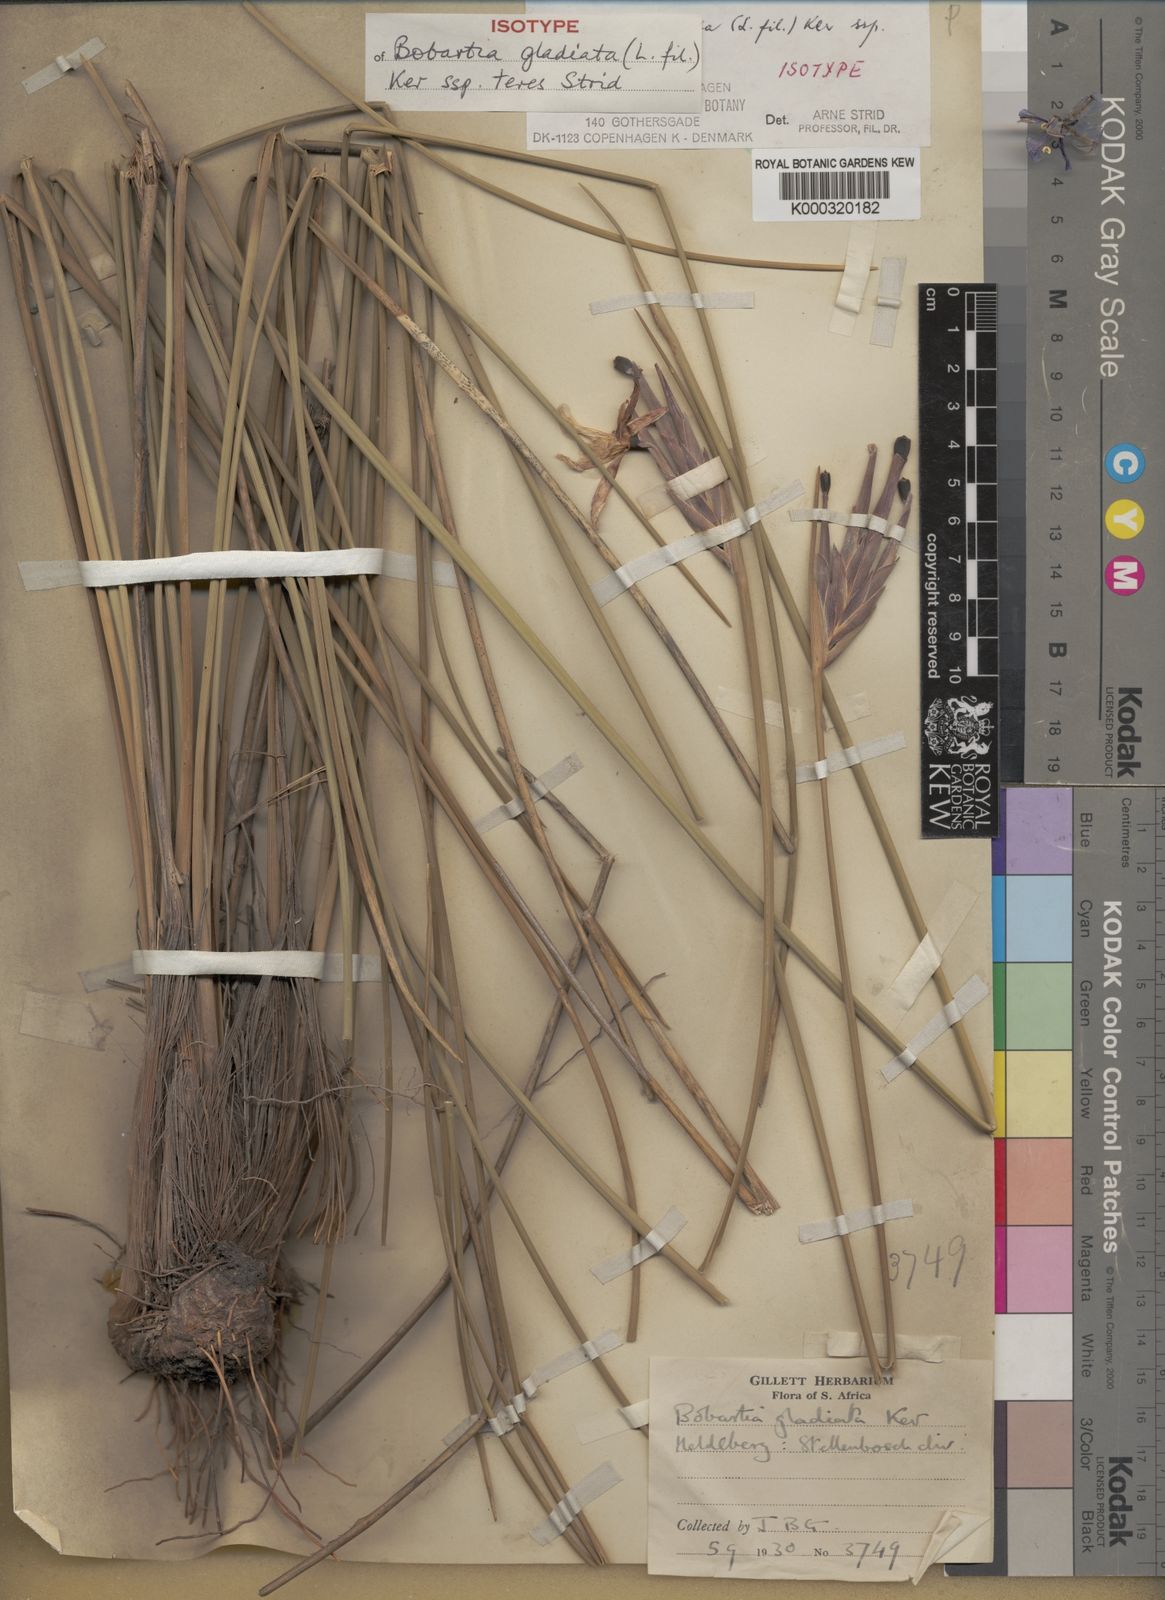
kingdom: Plantae
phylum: Tracheophyta
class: Liliopsida
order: Asparagales
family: Iridaceae
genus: Bobartia
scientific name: Bobartia gladiata
